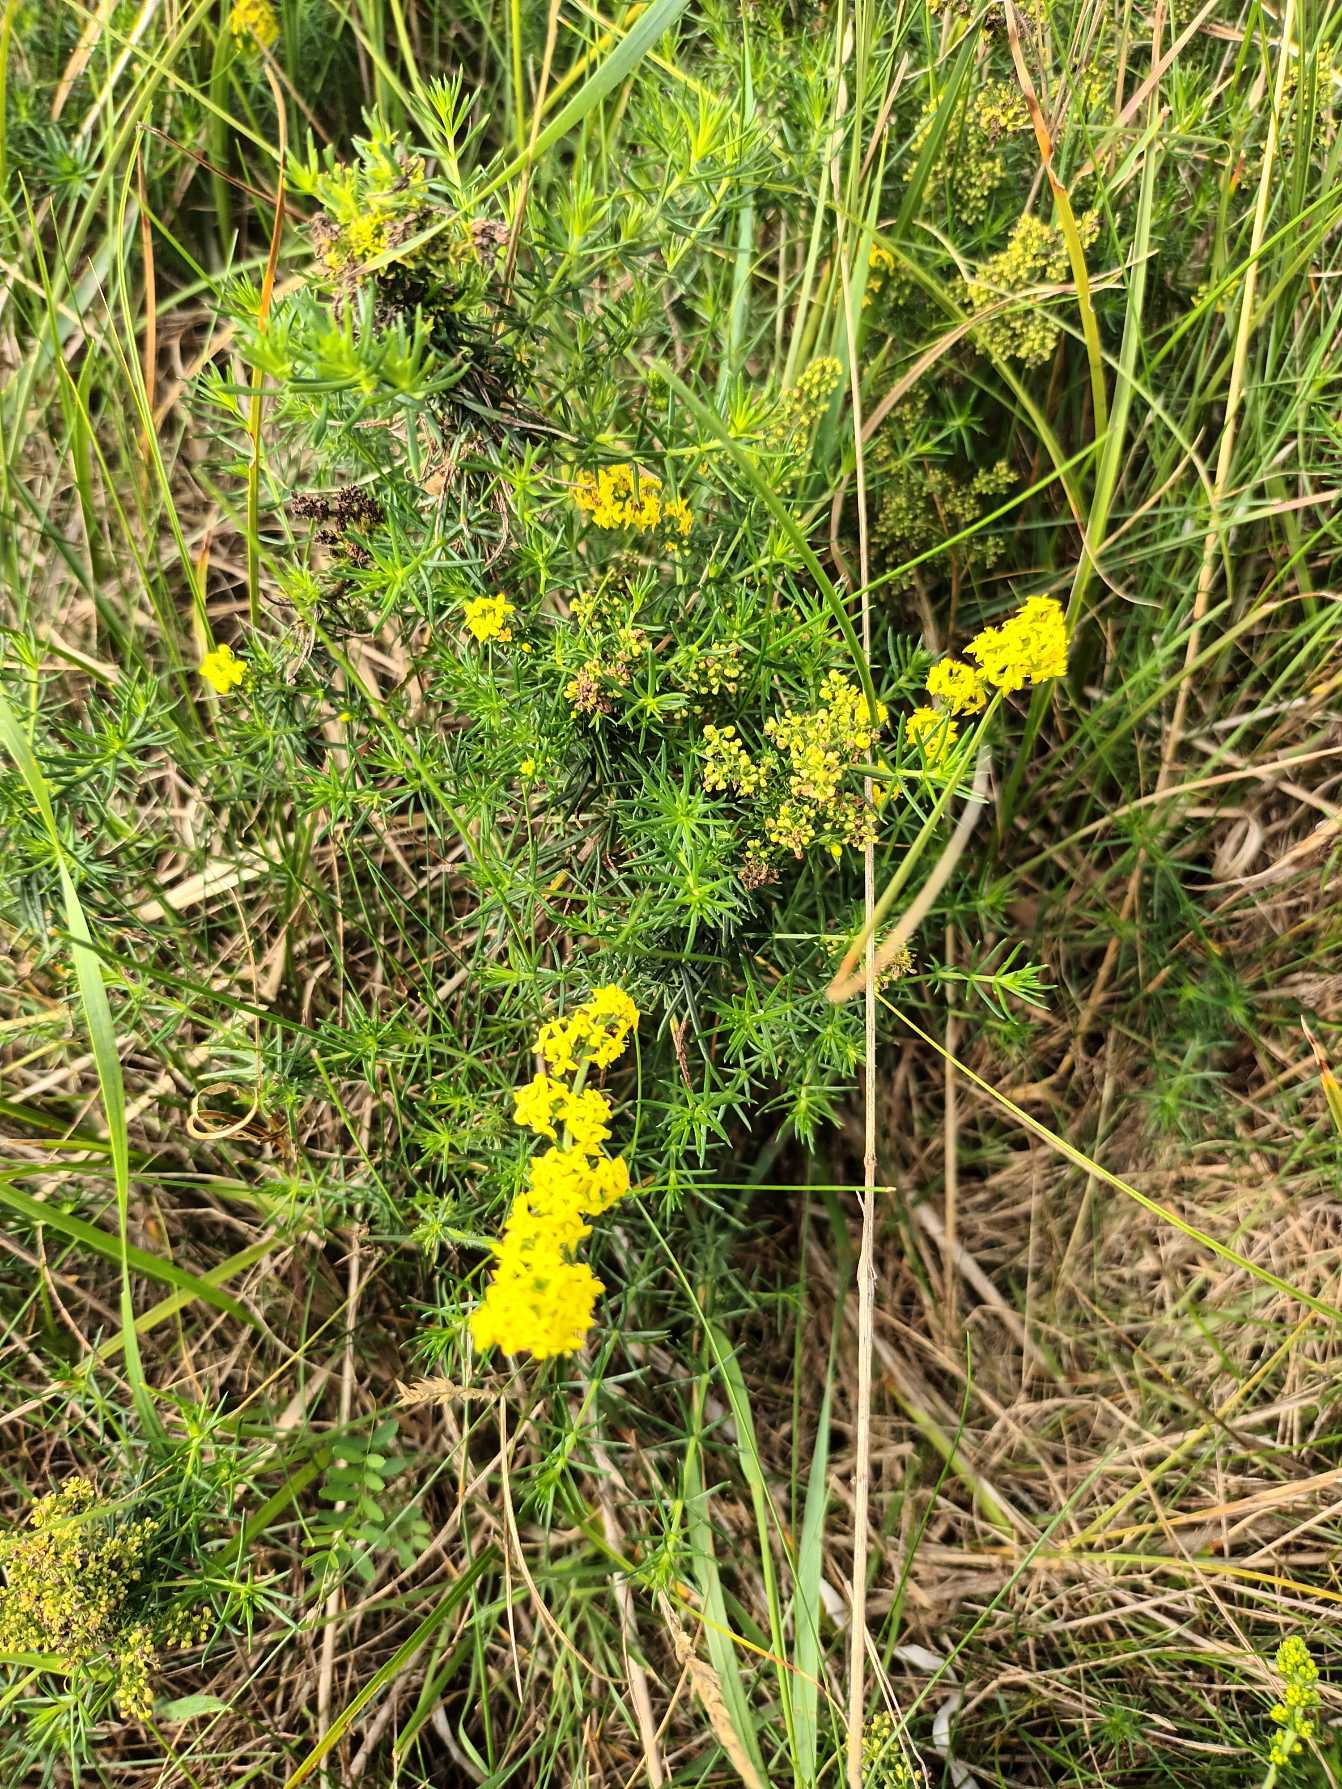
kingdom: Plantae
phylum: Tracheophyta
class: Magnoliopsida
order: Gentianales
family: Rubiaceae
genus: Galium
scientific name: Galium verum
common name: Gul snerre
